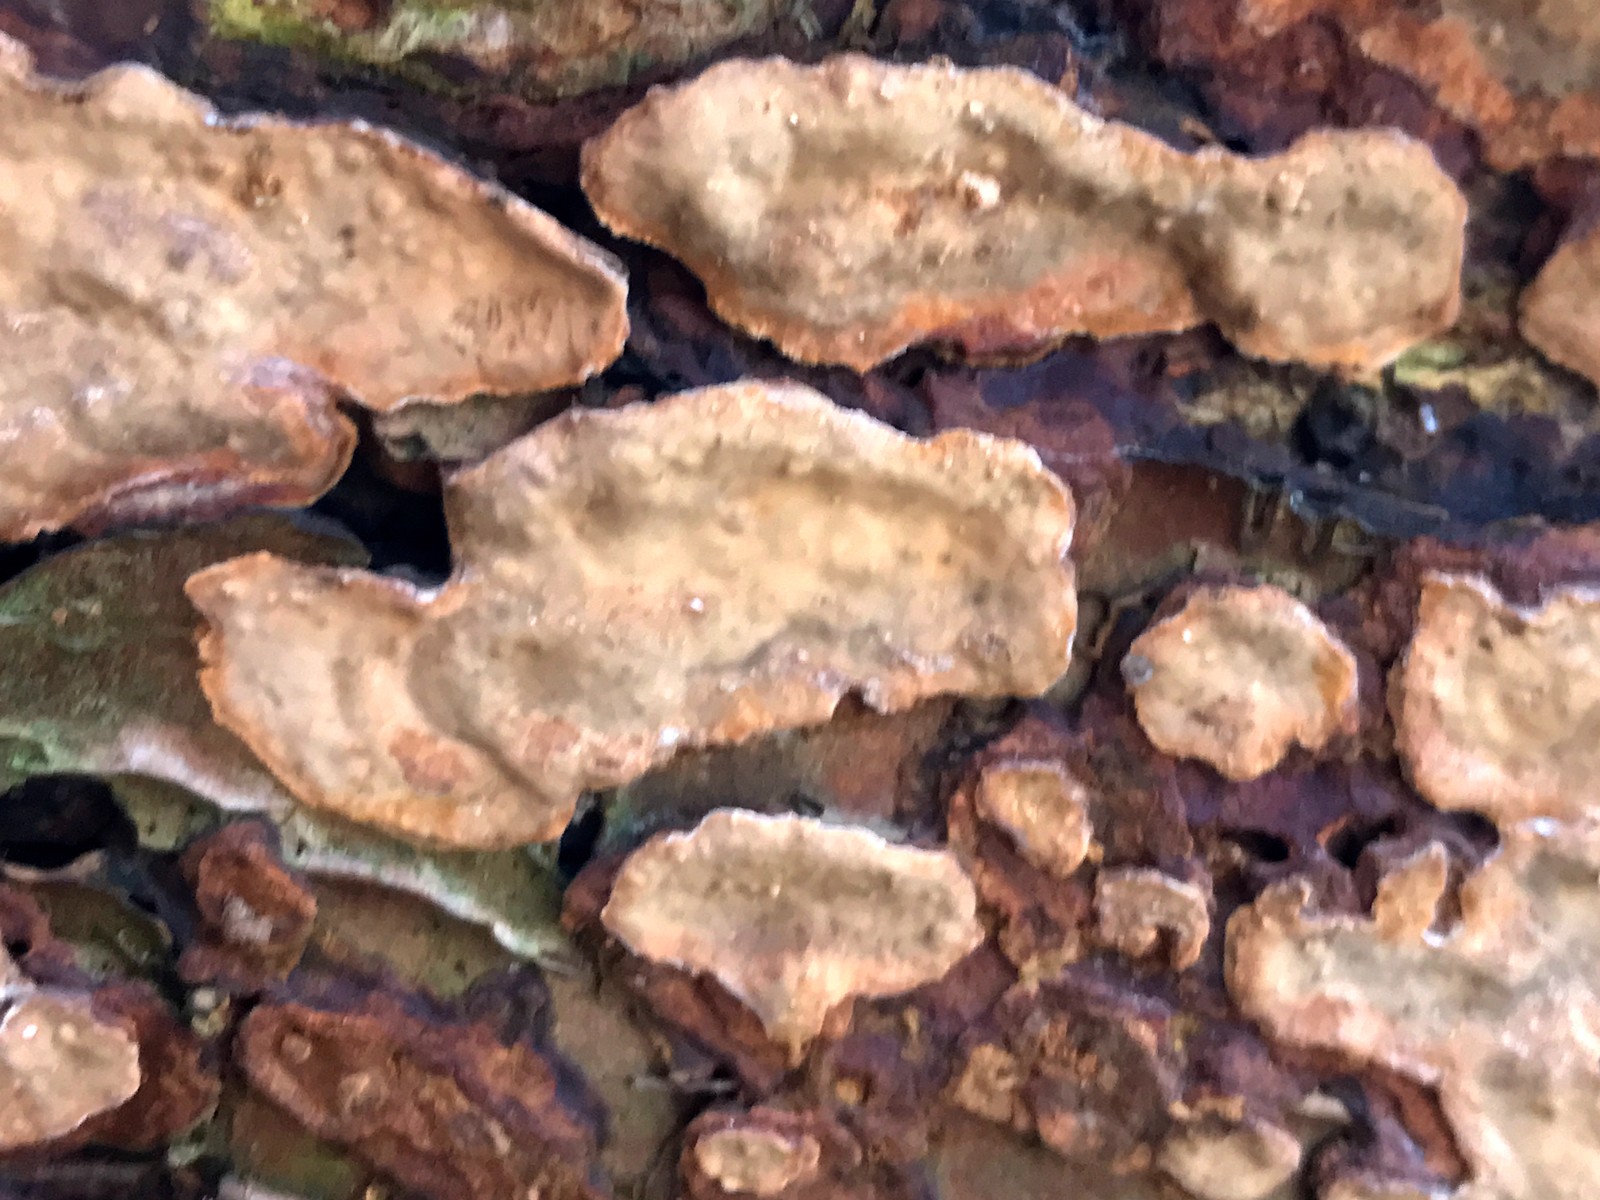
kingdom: Fungi
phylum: Basidiomycota
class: Agaricomycetes
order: Russulales
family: Stereaceae
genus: Stereum
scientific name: Stereum rugosum
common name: rynket lædersvamp
